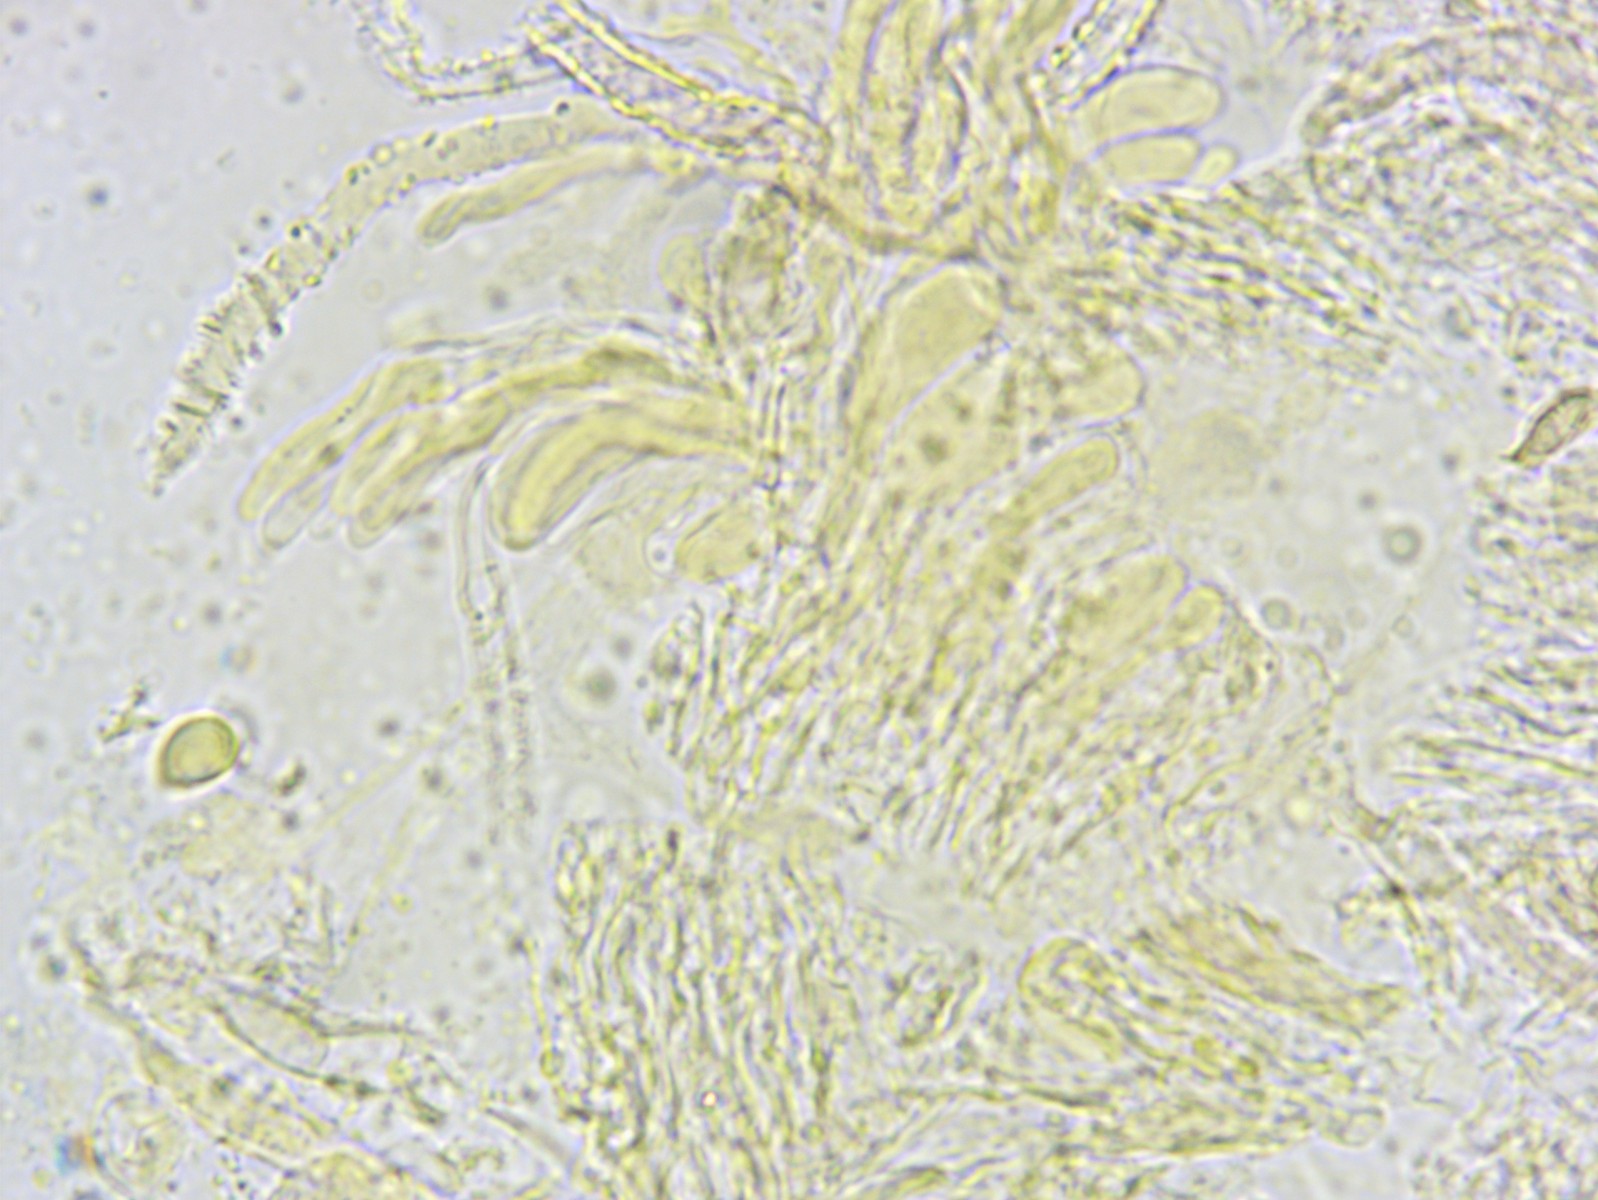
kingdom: Fungi
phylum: Basidiomycota
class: Agaricomycetes
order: Agaricales
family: Niaceae
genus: Flagelloscypha
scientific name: Flagelloscypha
